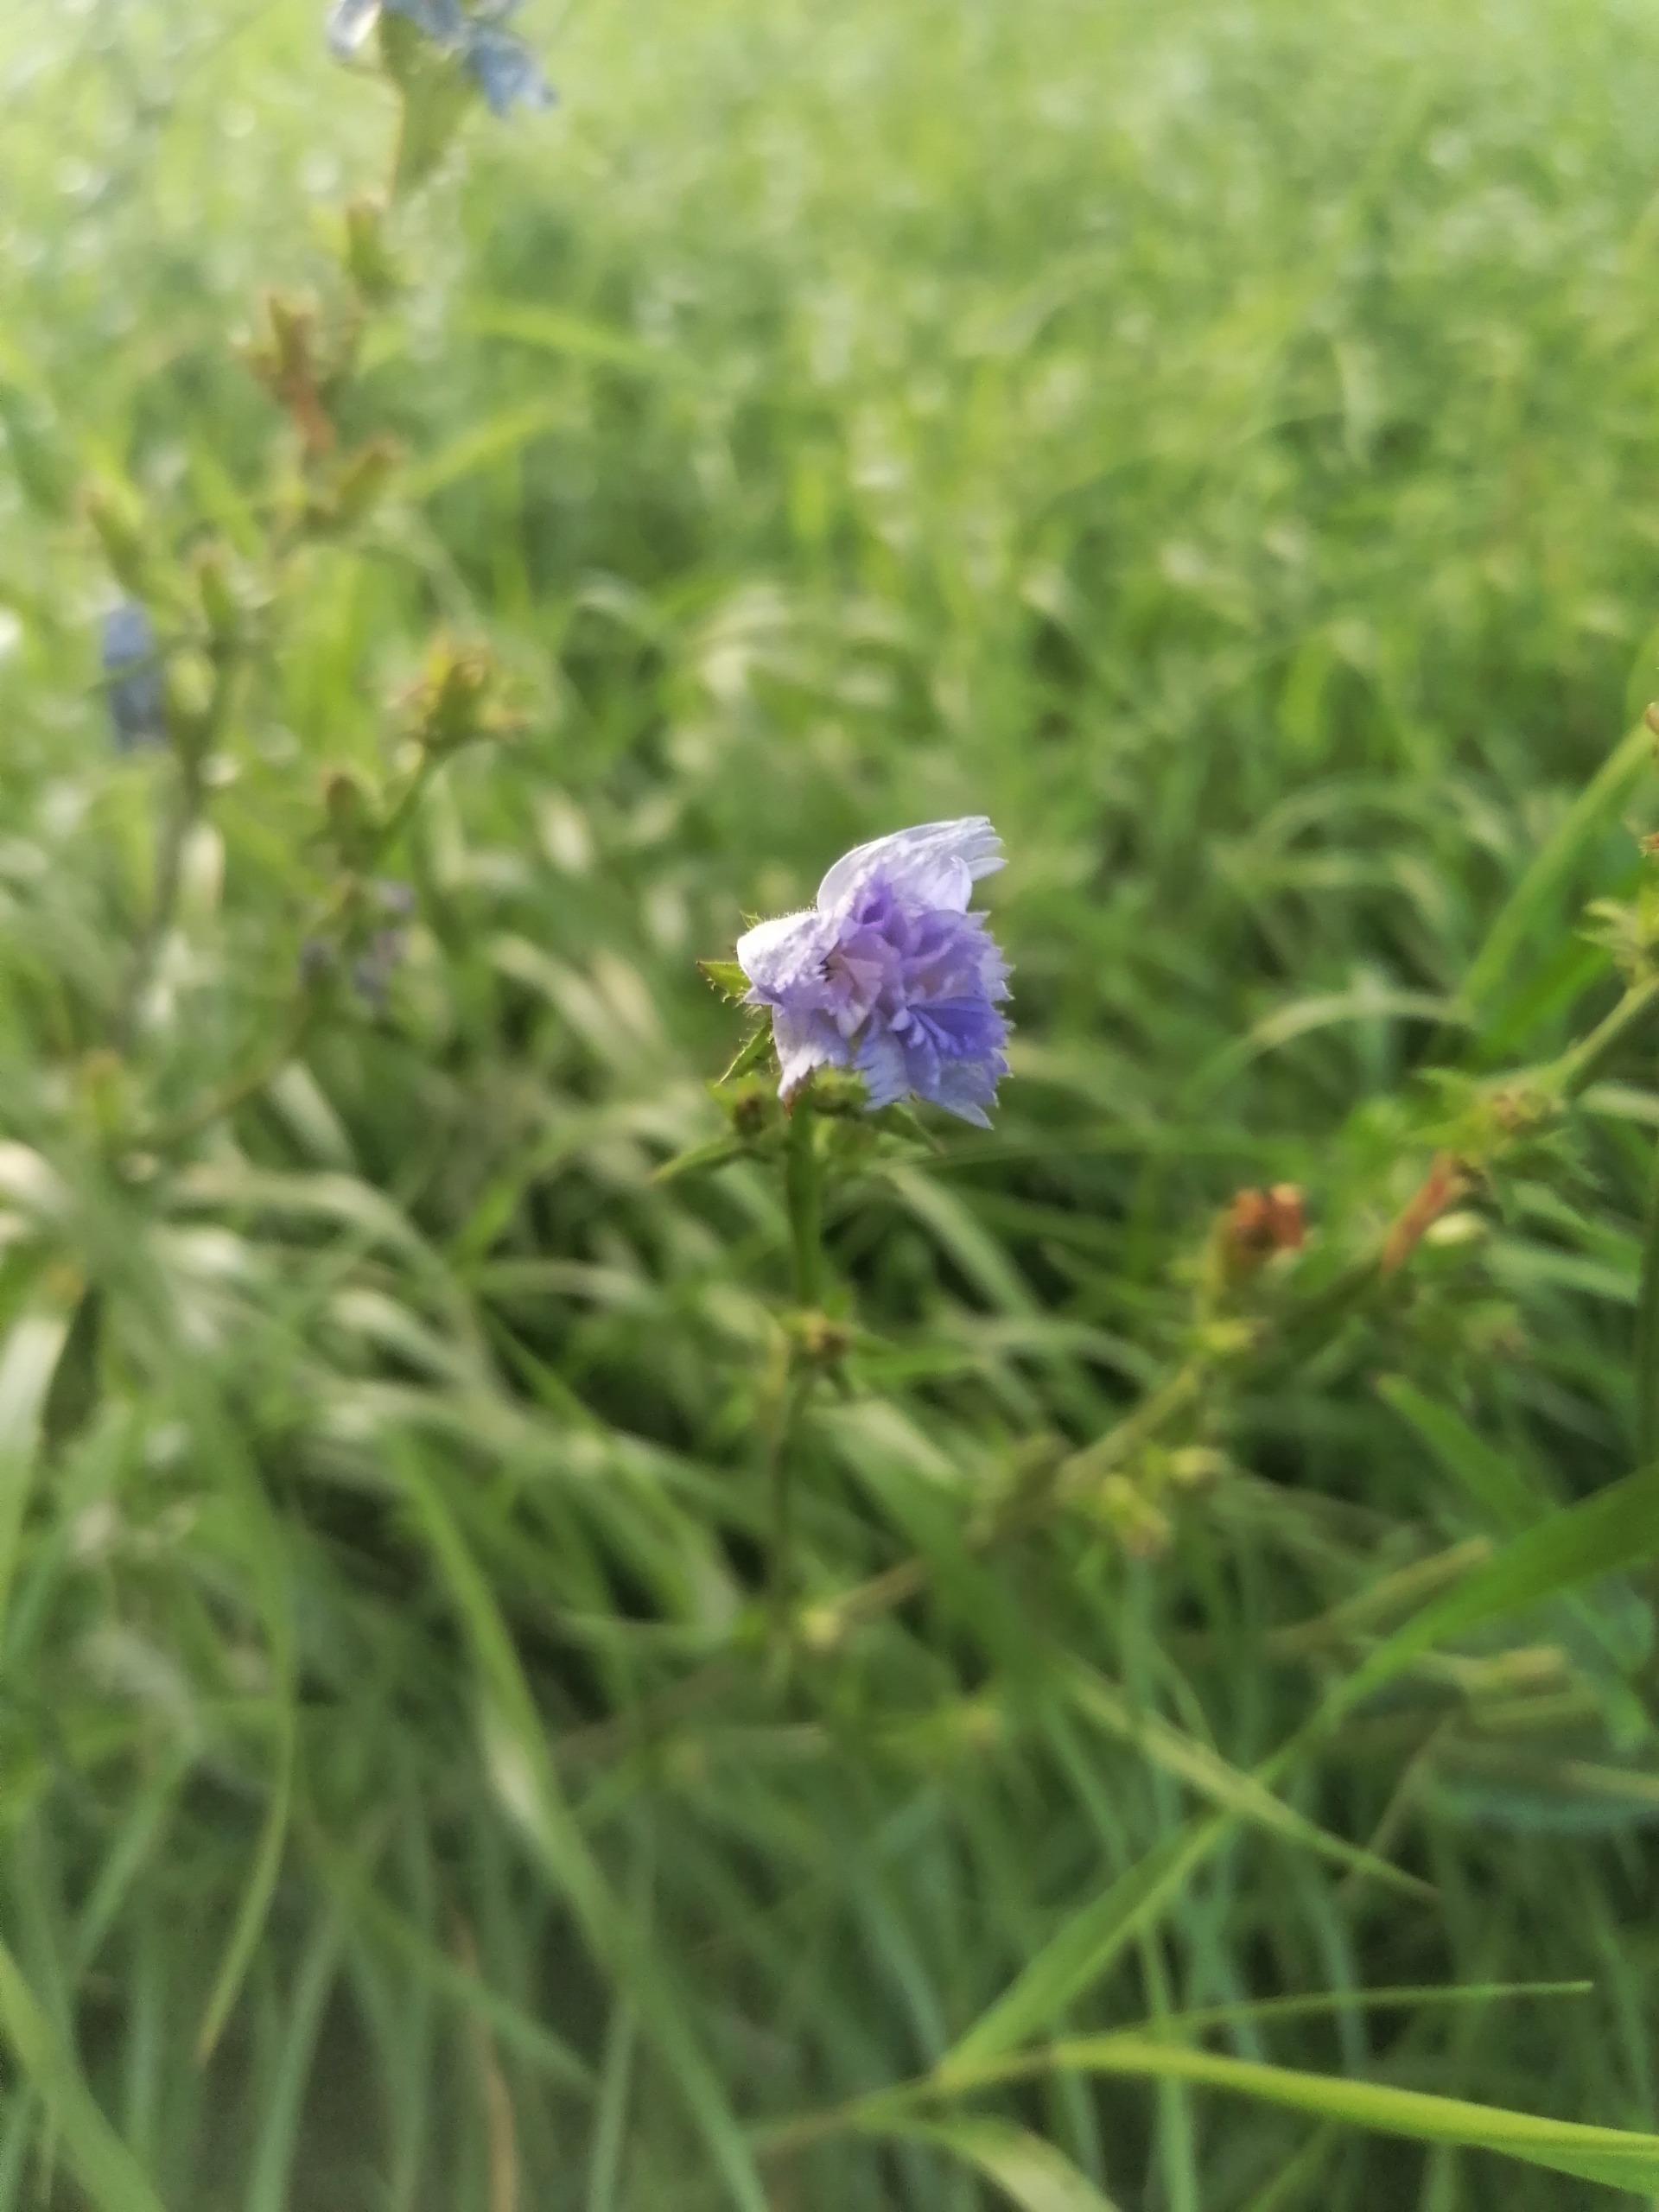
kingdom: Plantae
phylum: Tracheophyta
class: Magnoliopsida
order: Asterales
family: Asteraceae
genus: Cichorium
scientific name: Cichorium intybus
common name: Cikorie
